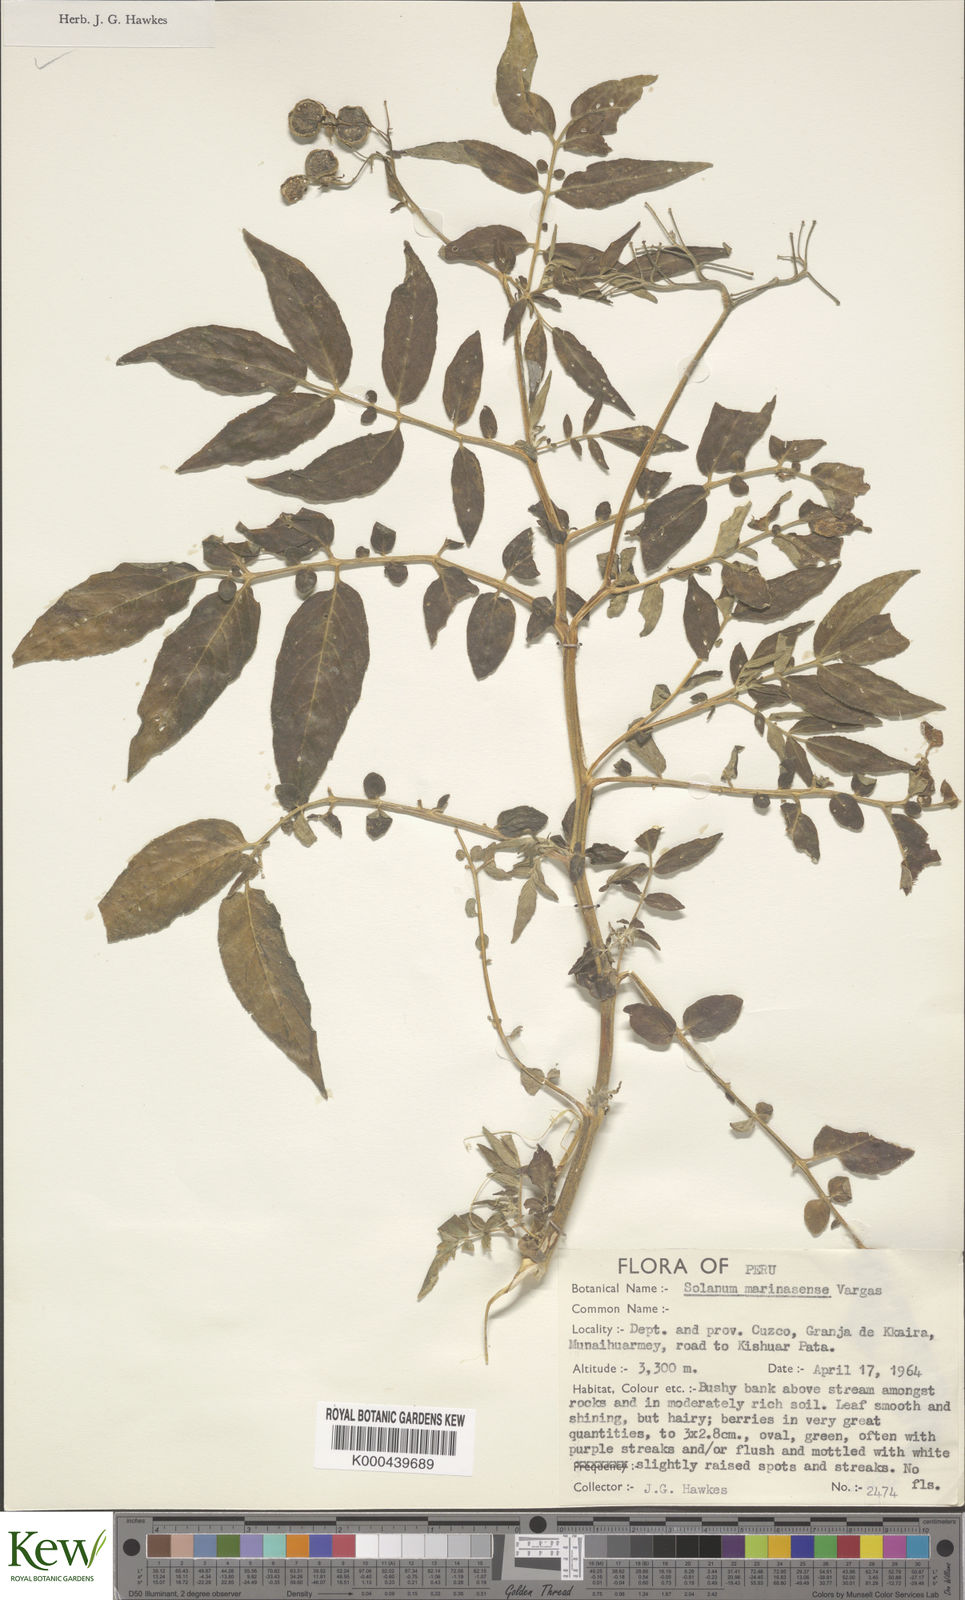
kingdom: Plantae
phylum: Tracheophyta
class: Magnoliopsida
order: Solanales
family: Solanaceae
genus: Solanum
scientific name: Solanum candolleanum
